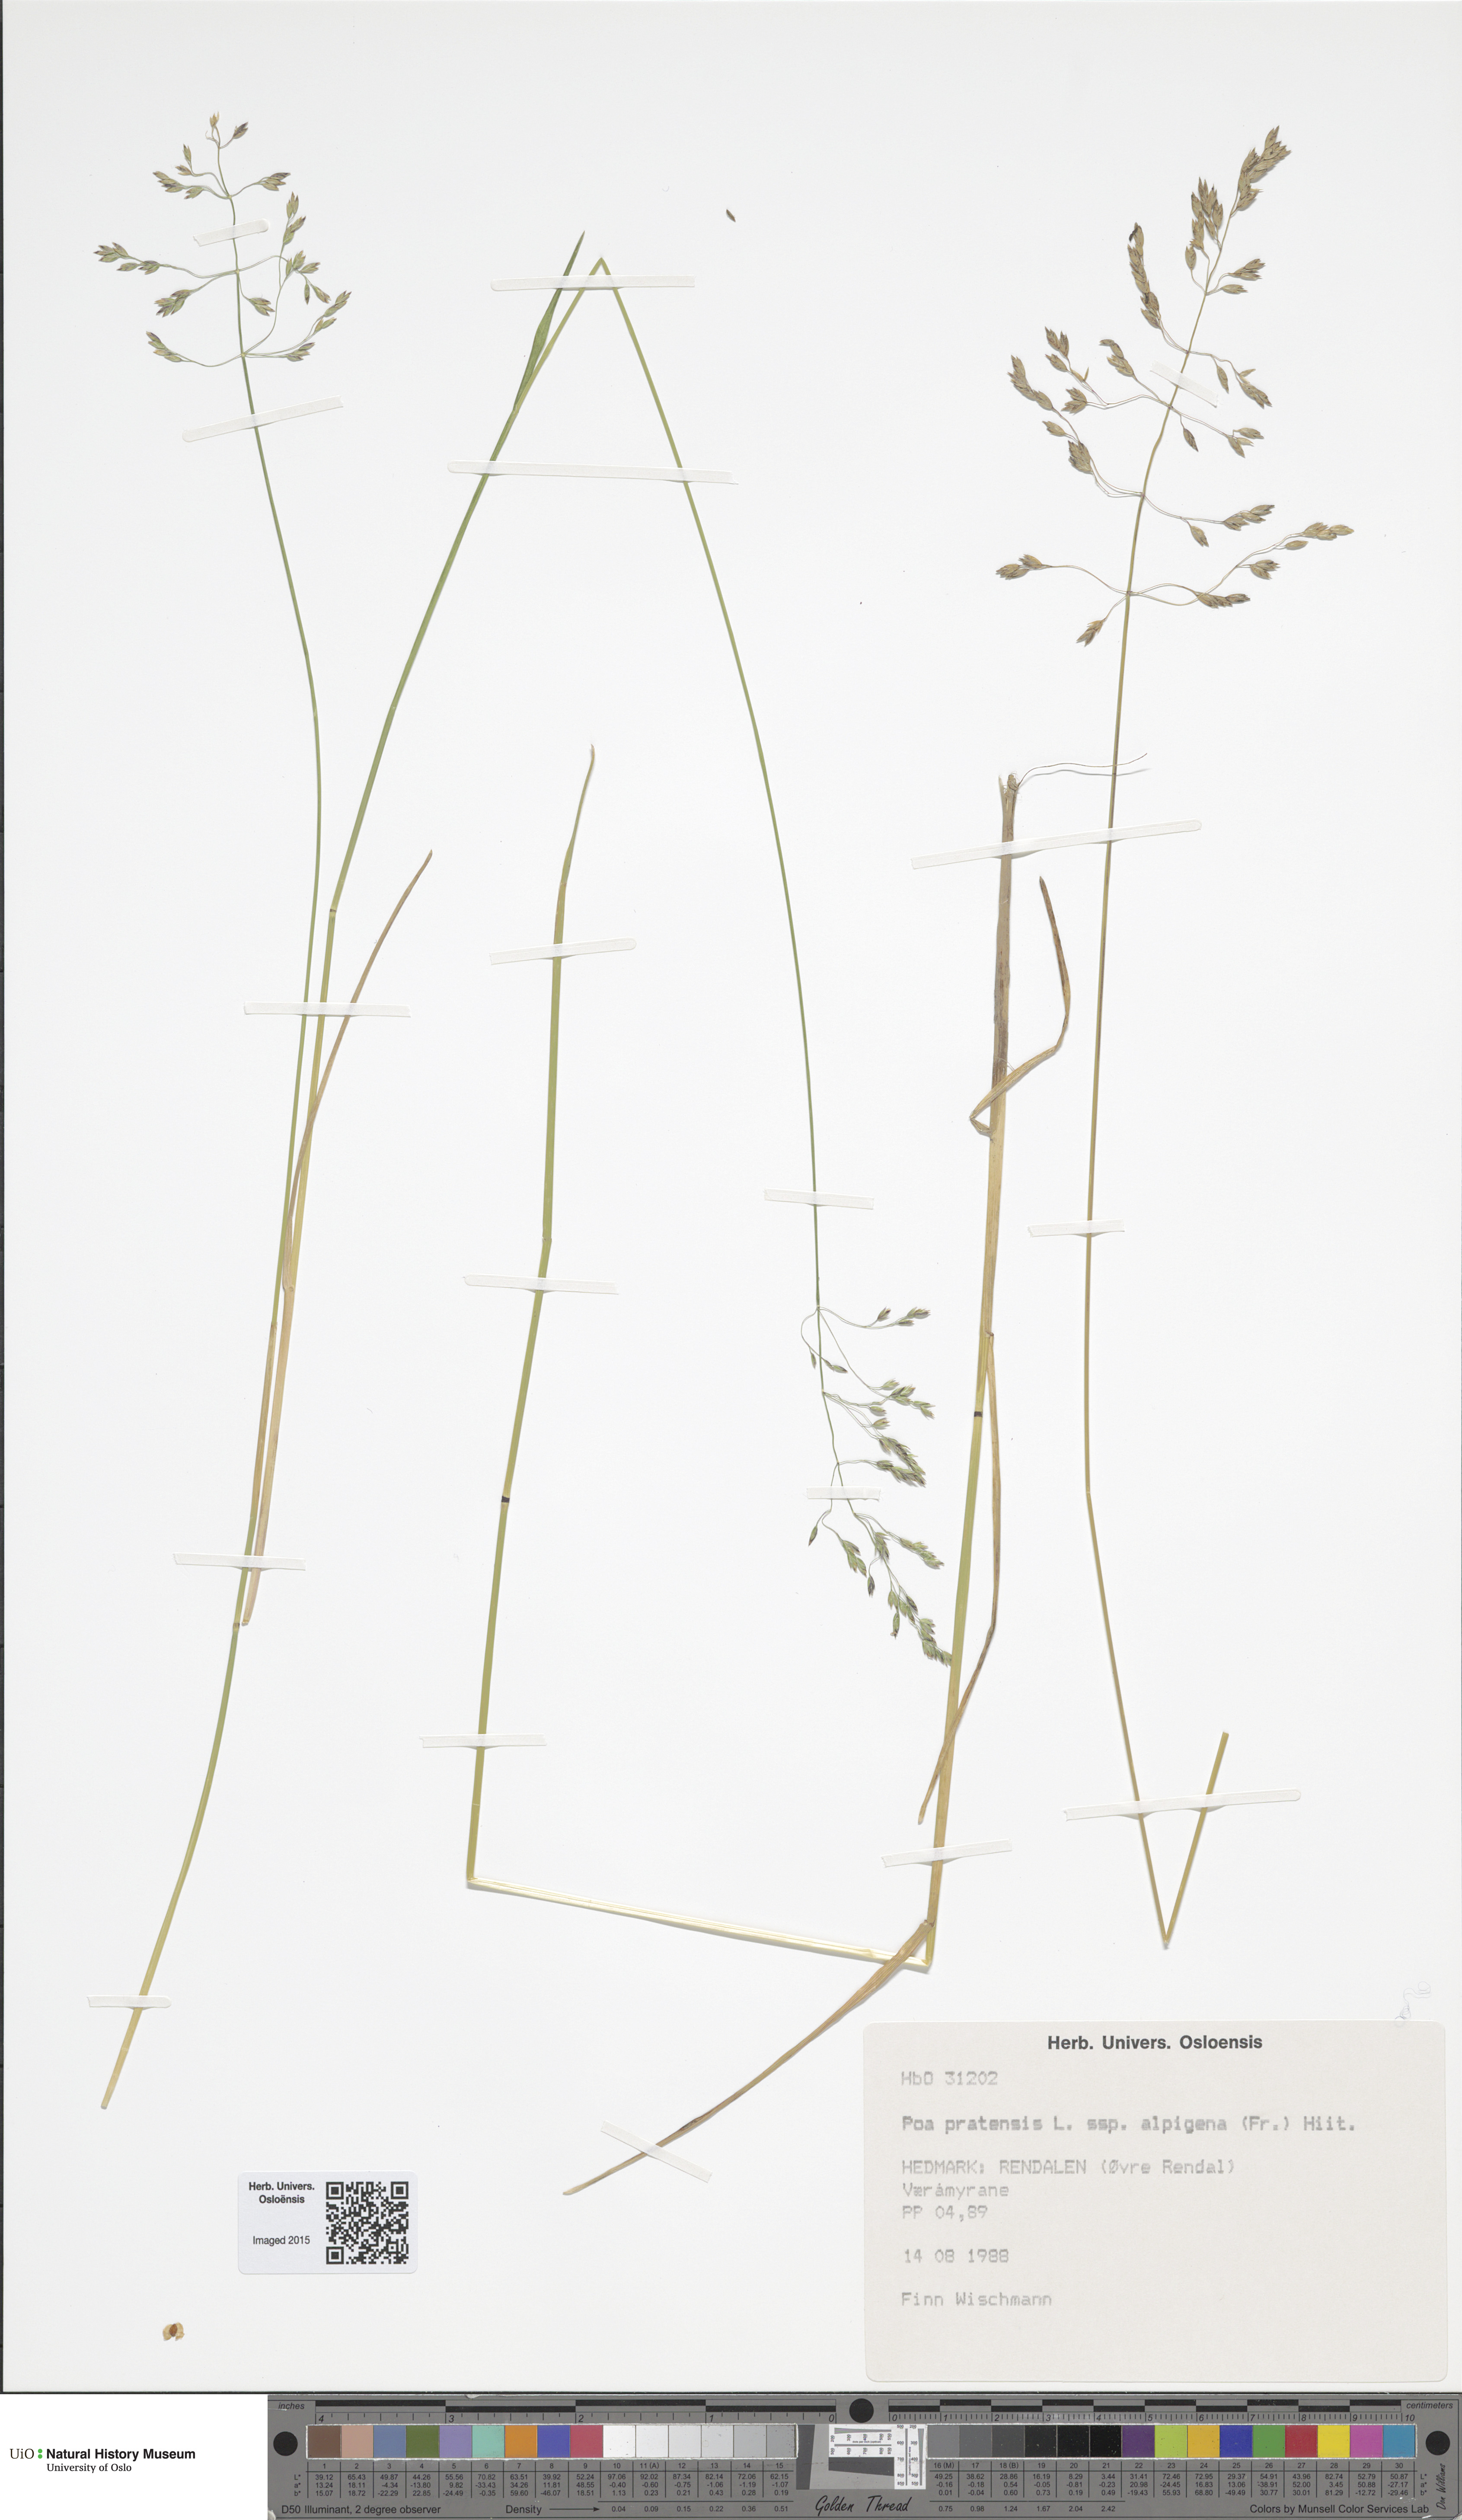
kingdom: Plantae
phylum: Tracheophyta
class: Liliopsida
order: Poales
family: Poaceae
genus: Poa
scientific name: Poa alpigena
